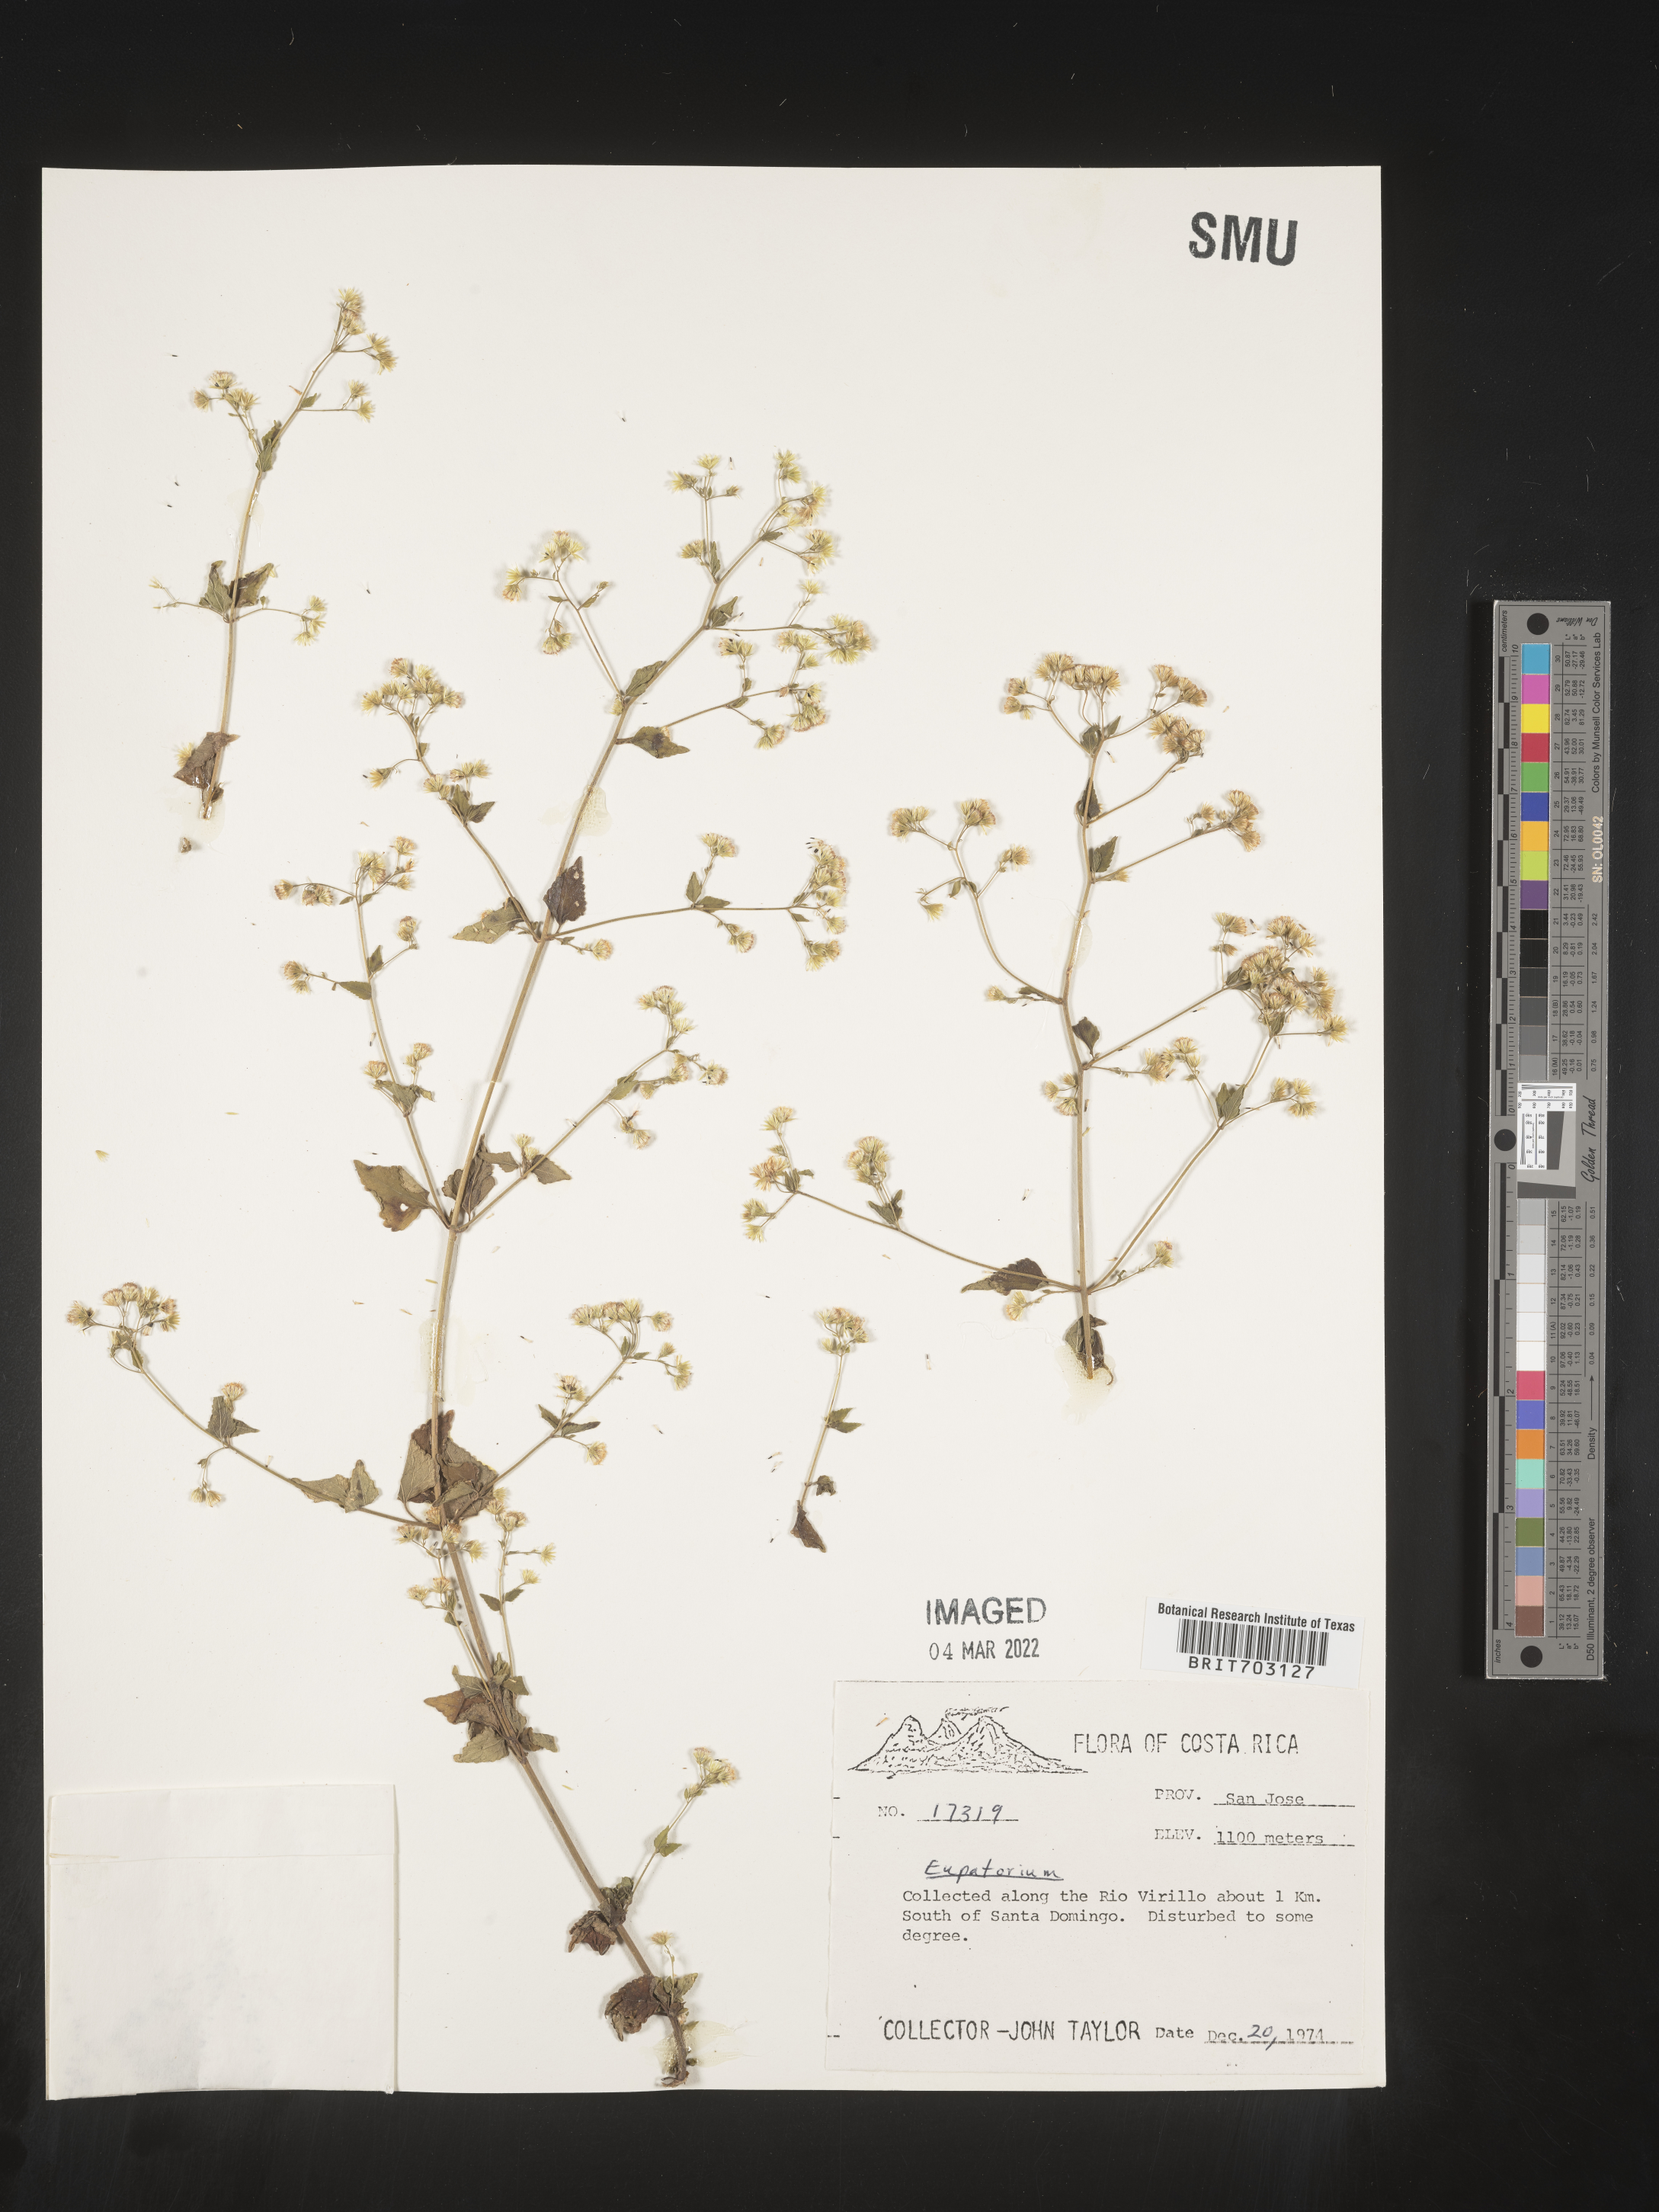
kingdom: Plantae
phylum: Tracheophyta
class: Magnoliopsida
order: Asterales
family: Asteraceae
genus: Eupatorium
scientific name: Eupatorium
